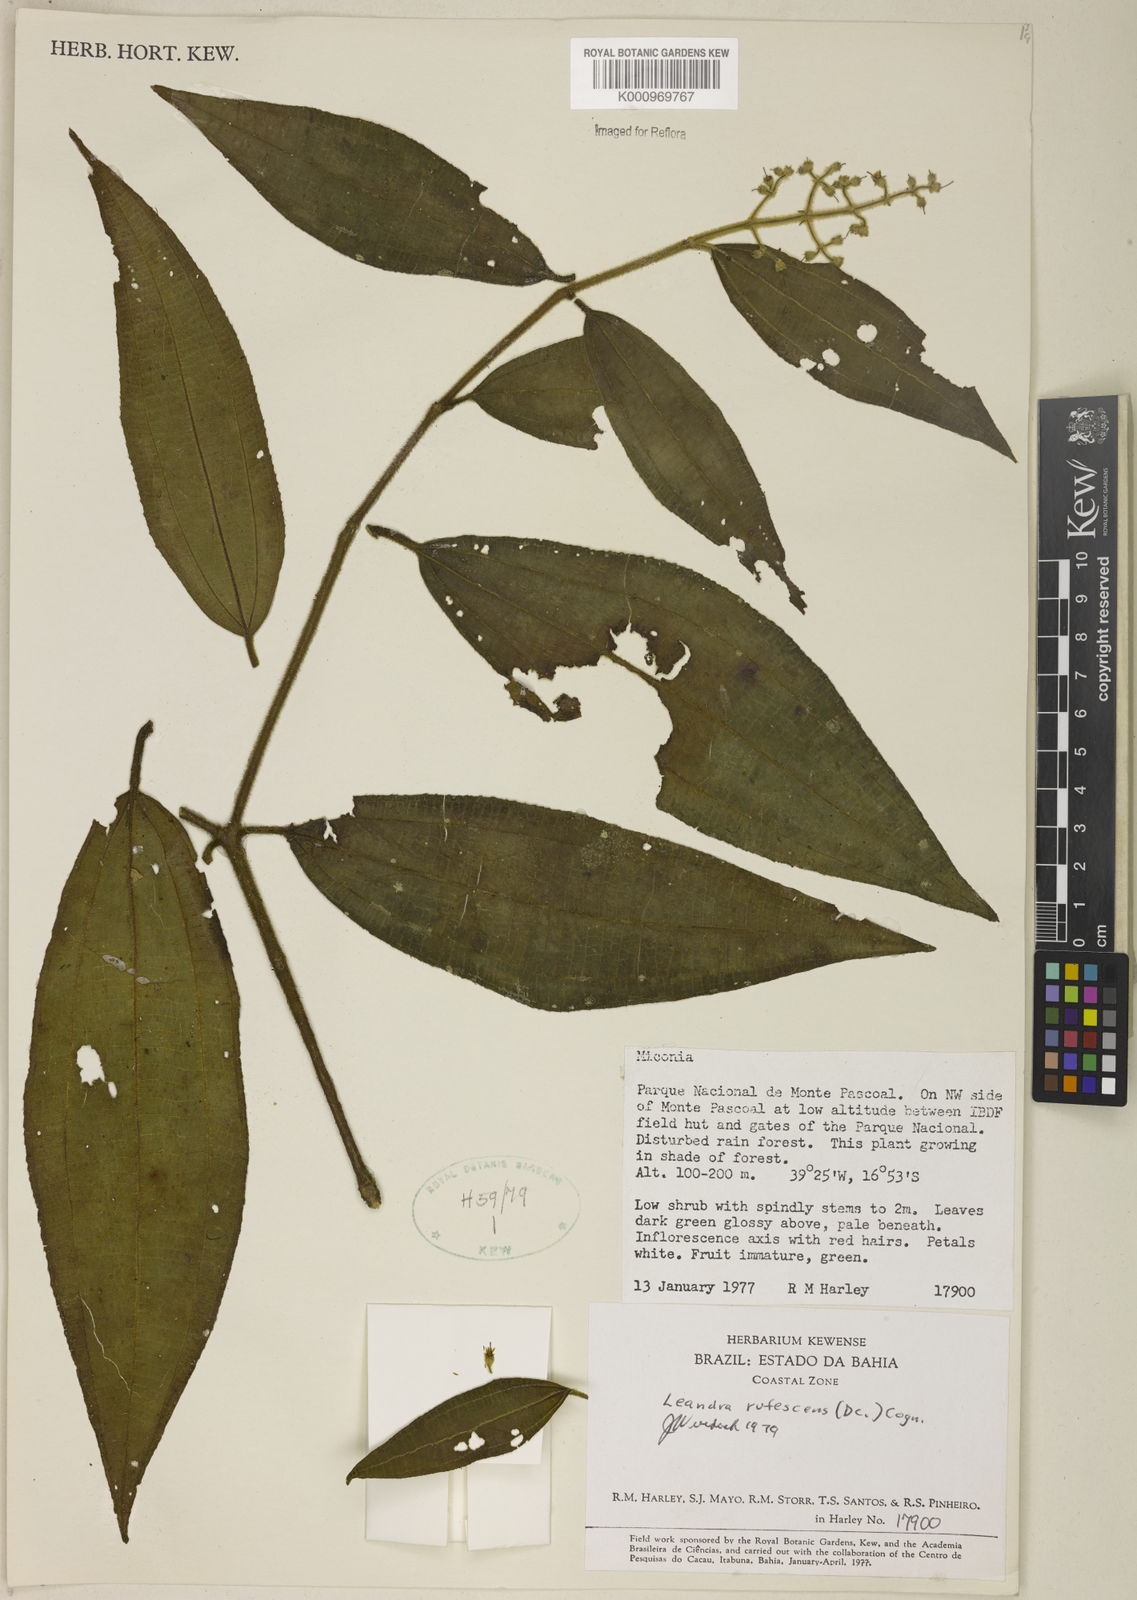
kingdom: Plantae
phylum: Tracheophyta
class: Magnoliopsida
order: Myrtales
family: Melastomataceae
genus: Miconia
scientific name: Miconia asperiuscula
